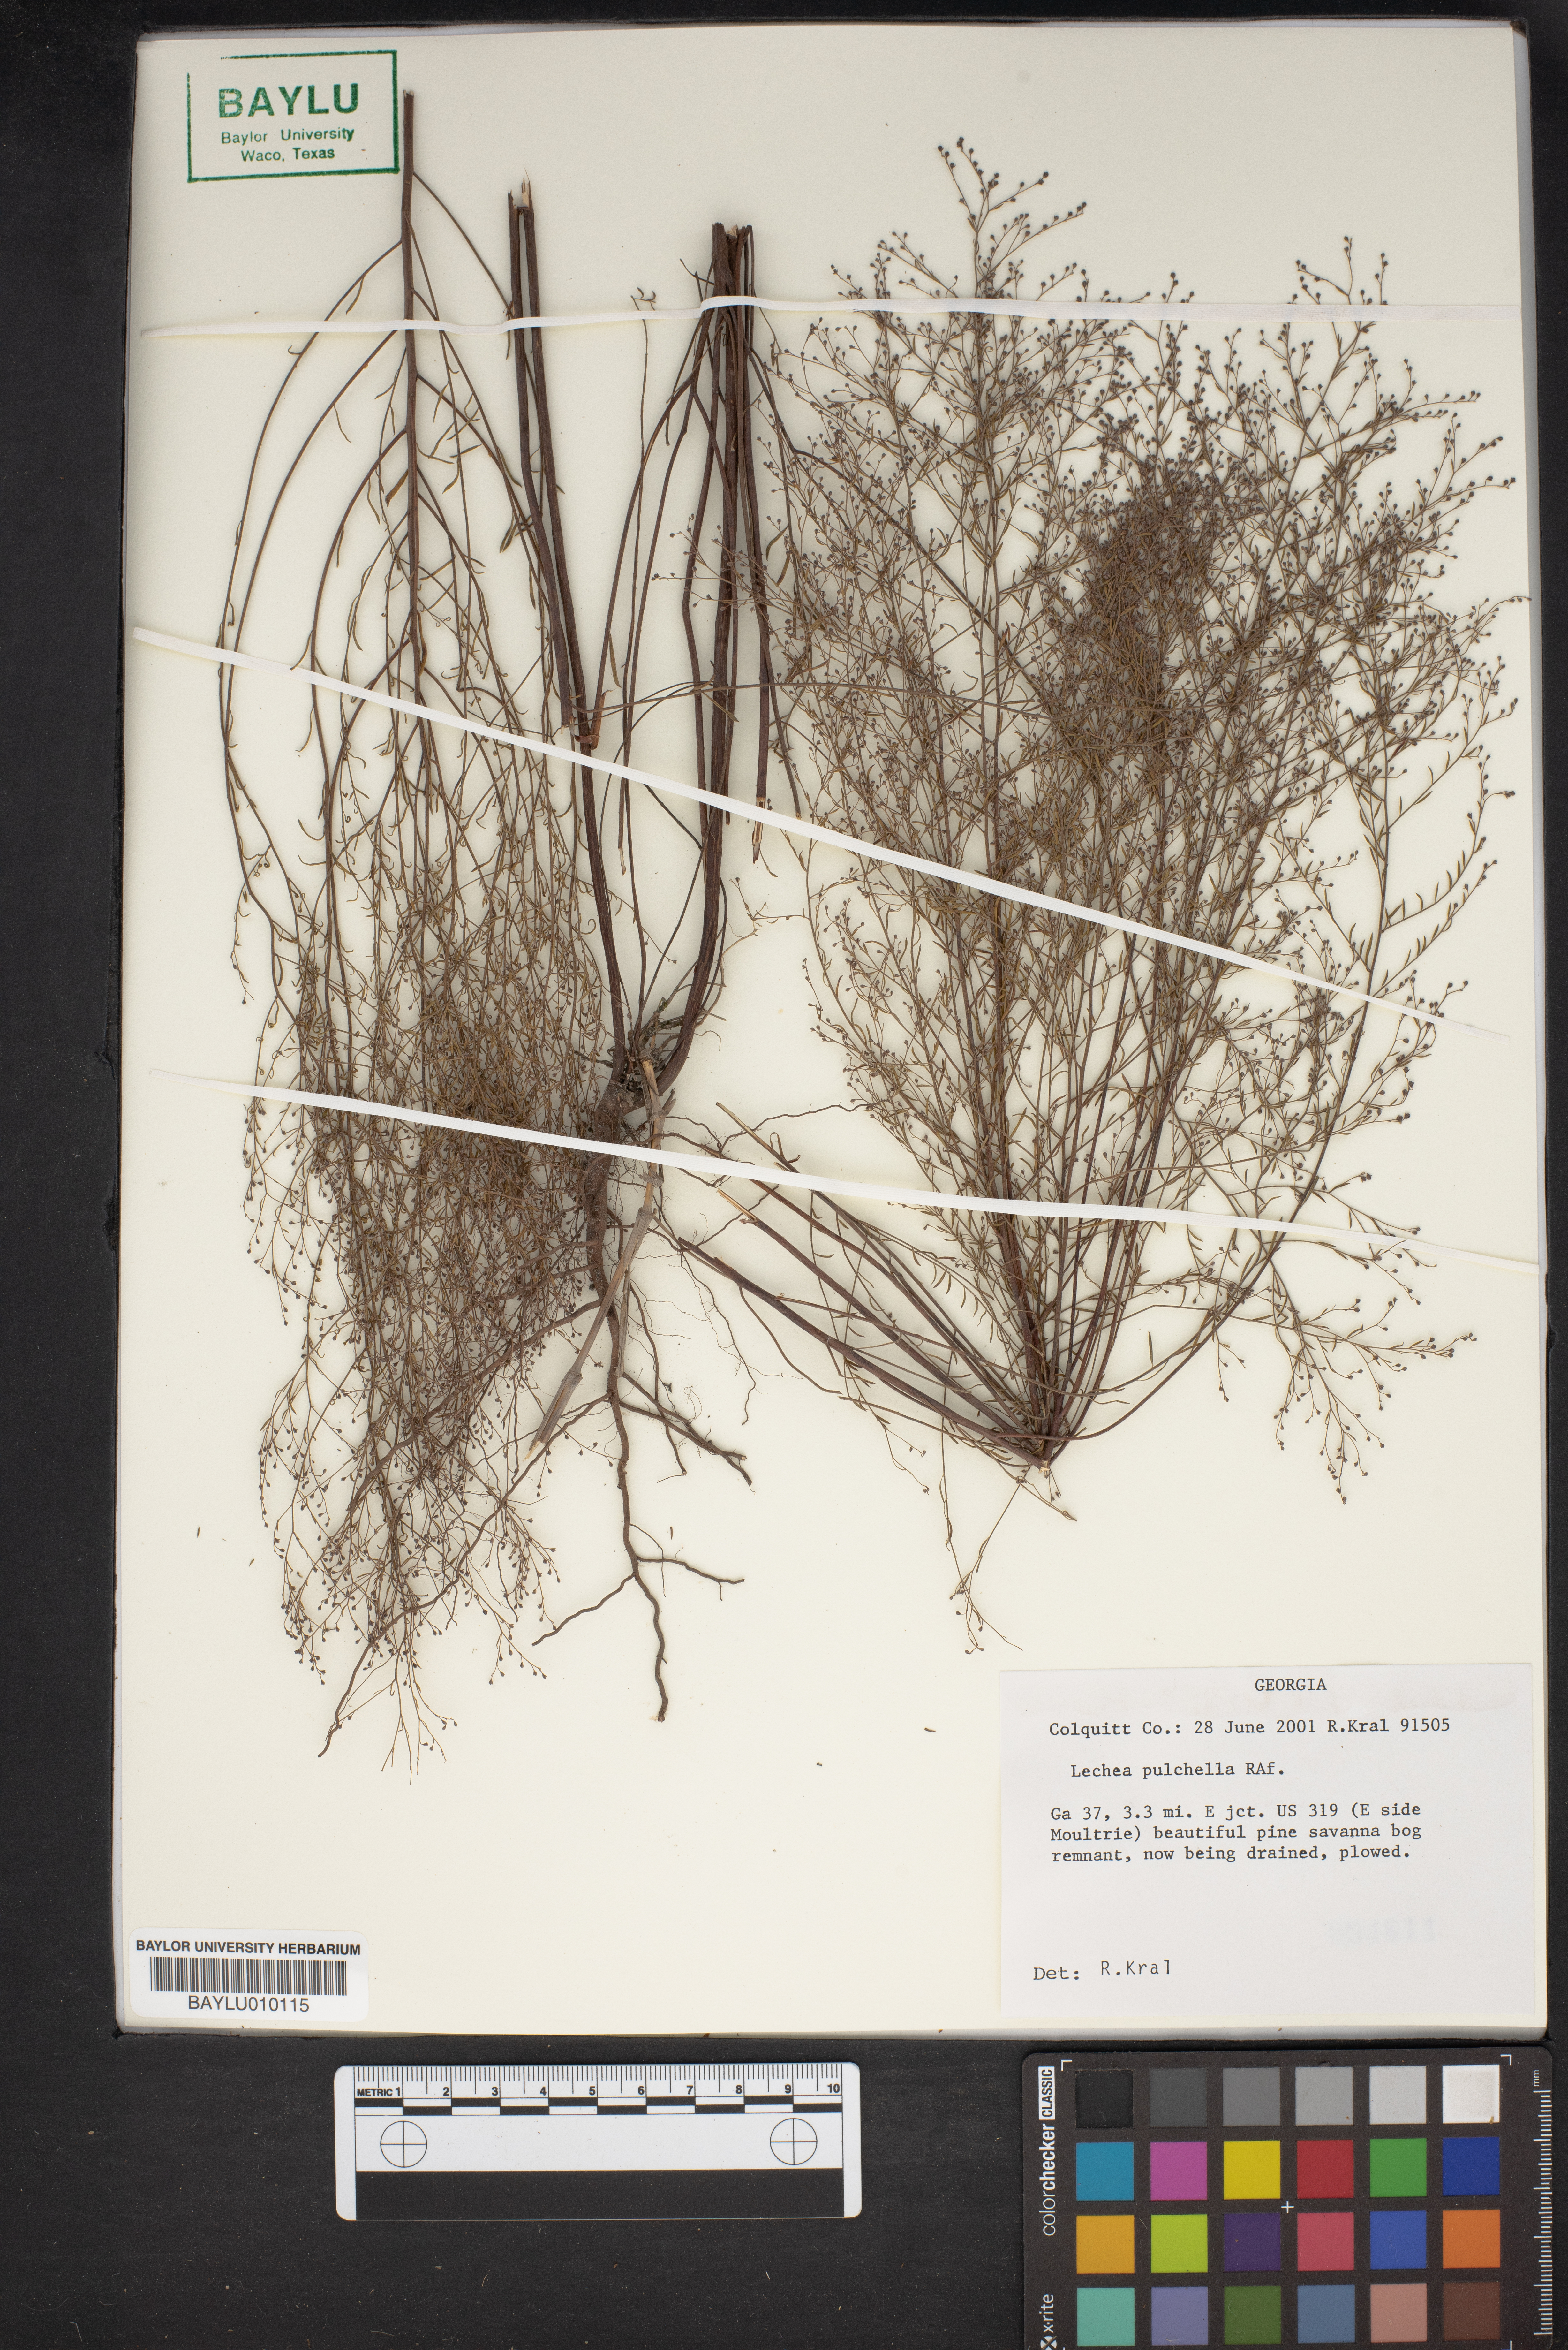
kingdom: Plantae
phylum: Tracheophyta
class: Magnoliopsida
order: Malvales
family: Cistaceae
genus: Lechea
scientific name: Lechea pulchella
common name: Leggett's pinweed
